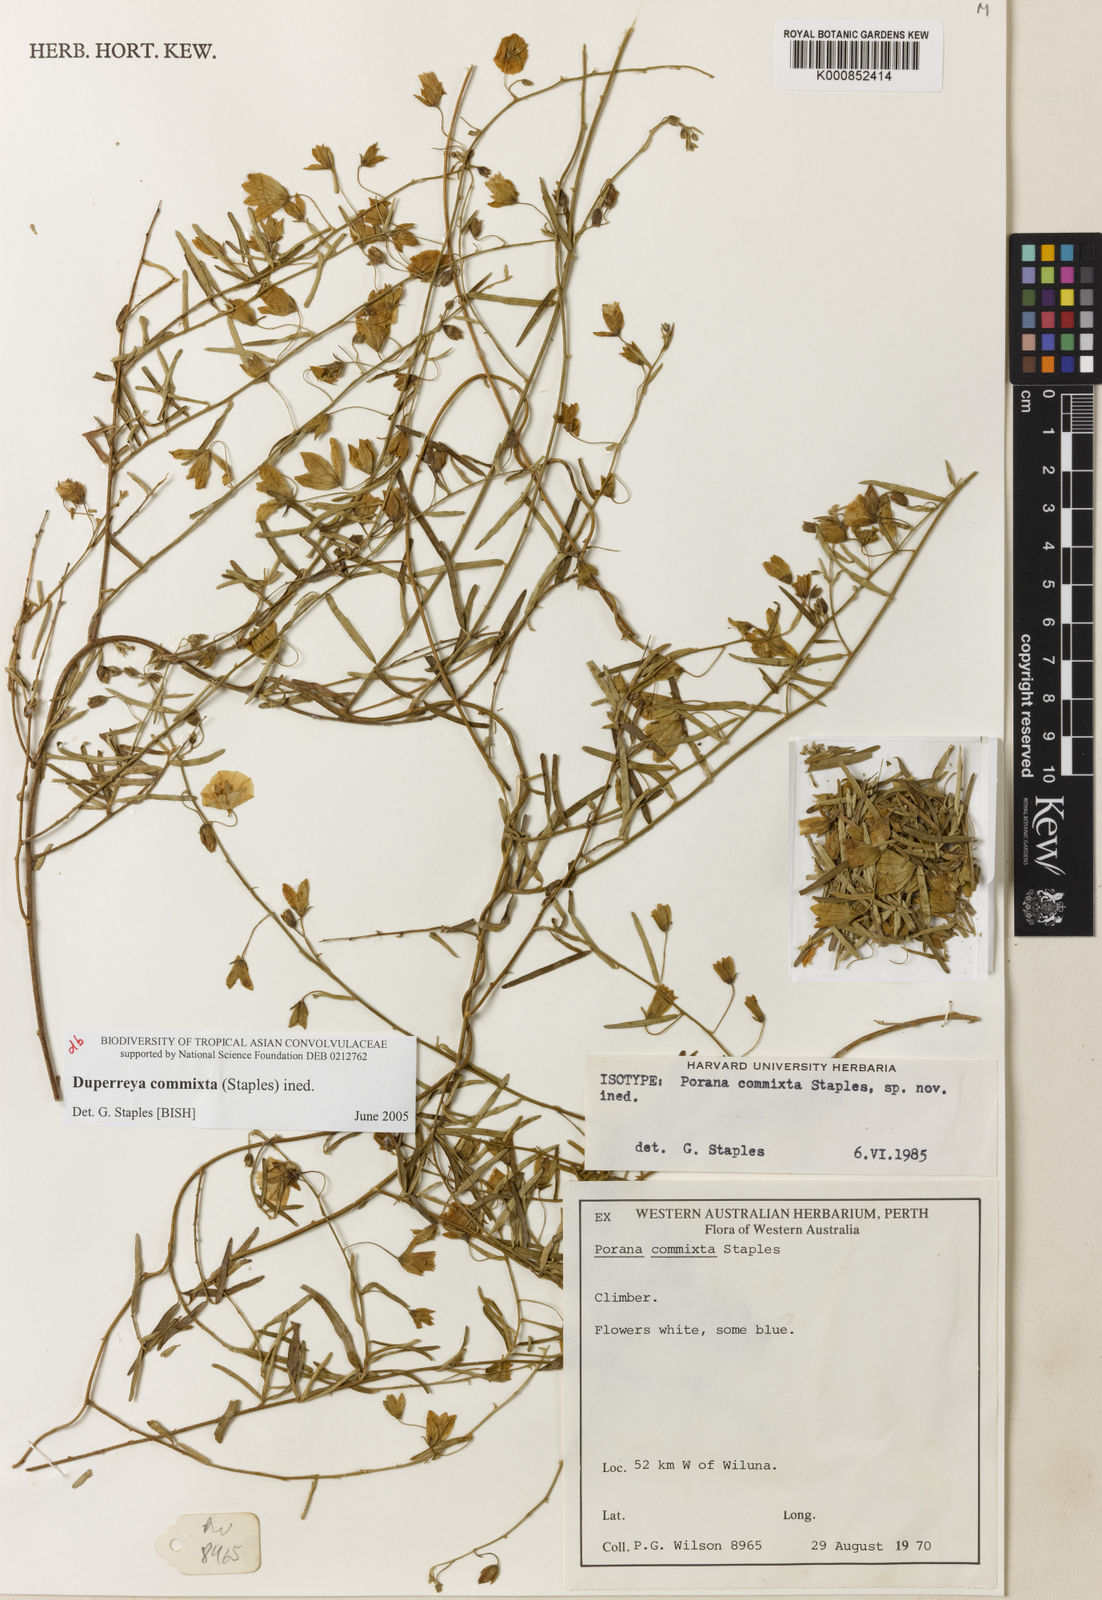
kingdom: Plantae
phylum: Tracheophyta
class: Magnoliopsida
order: Solanales
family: Convolvulaceae
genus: Duperreya
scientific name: Duperreya commixta
